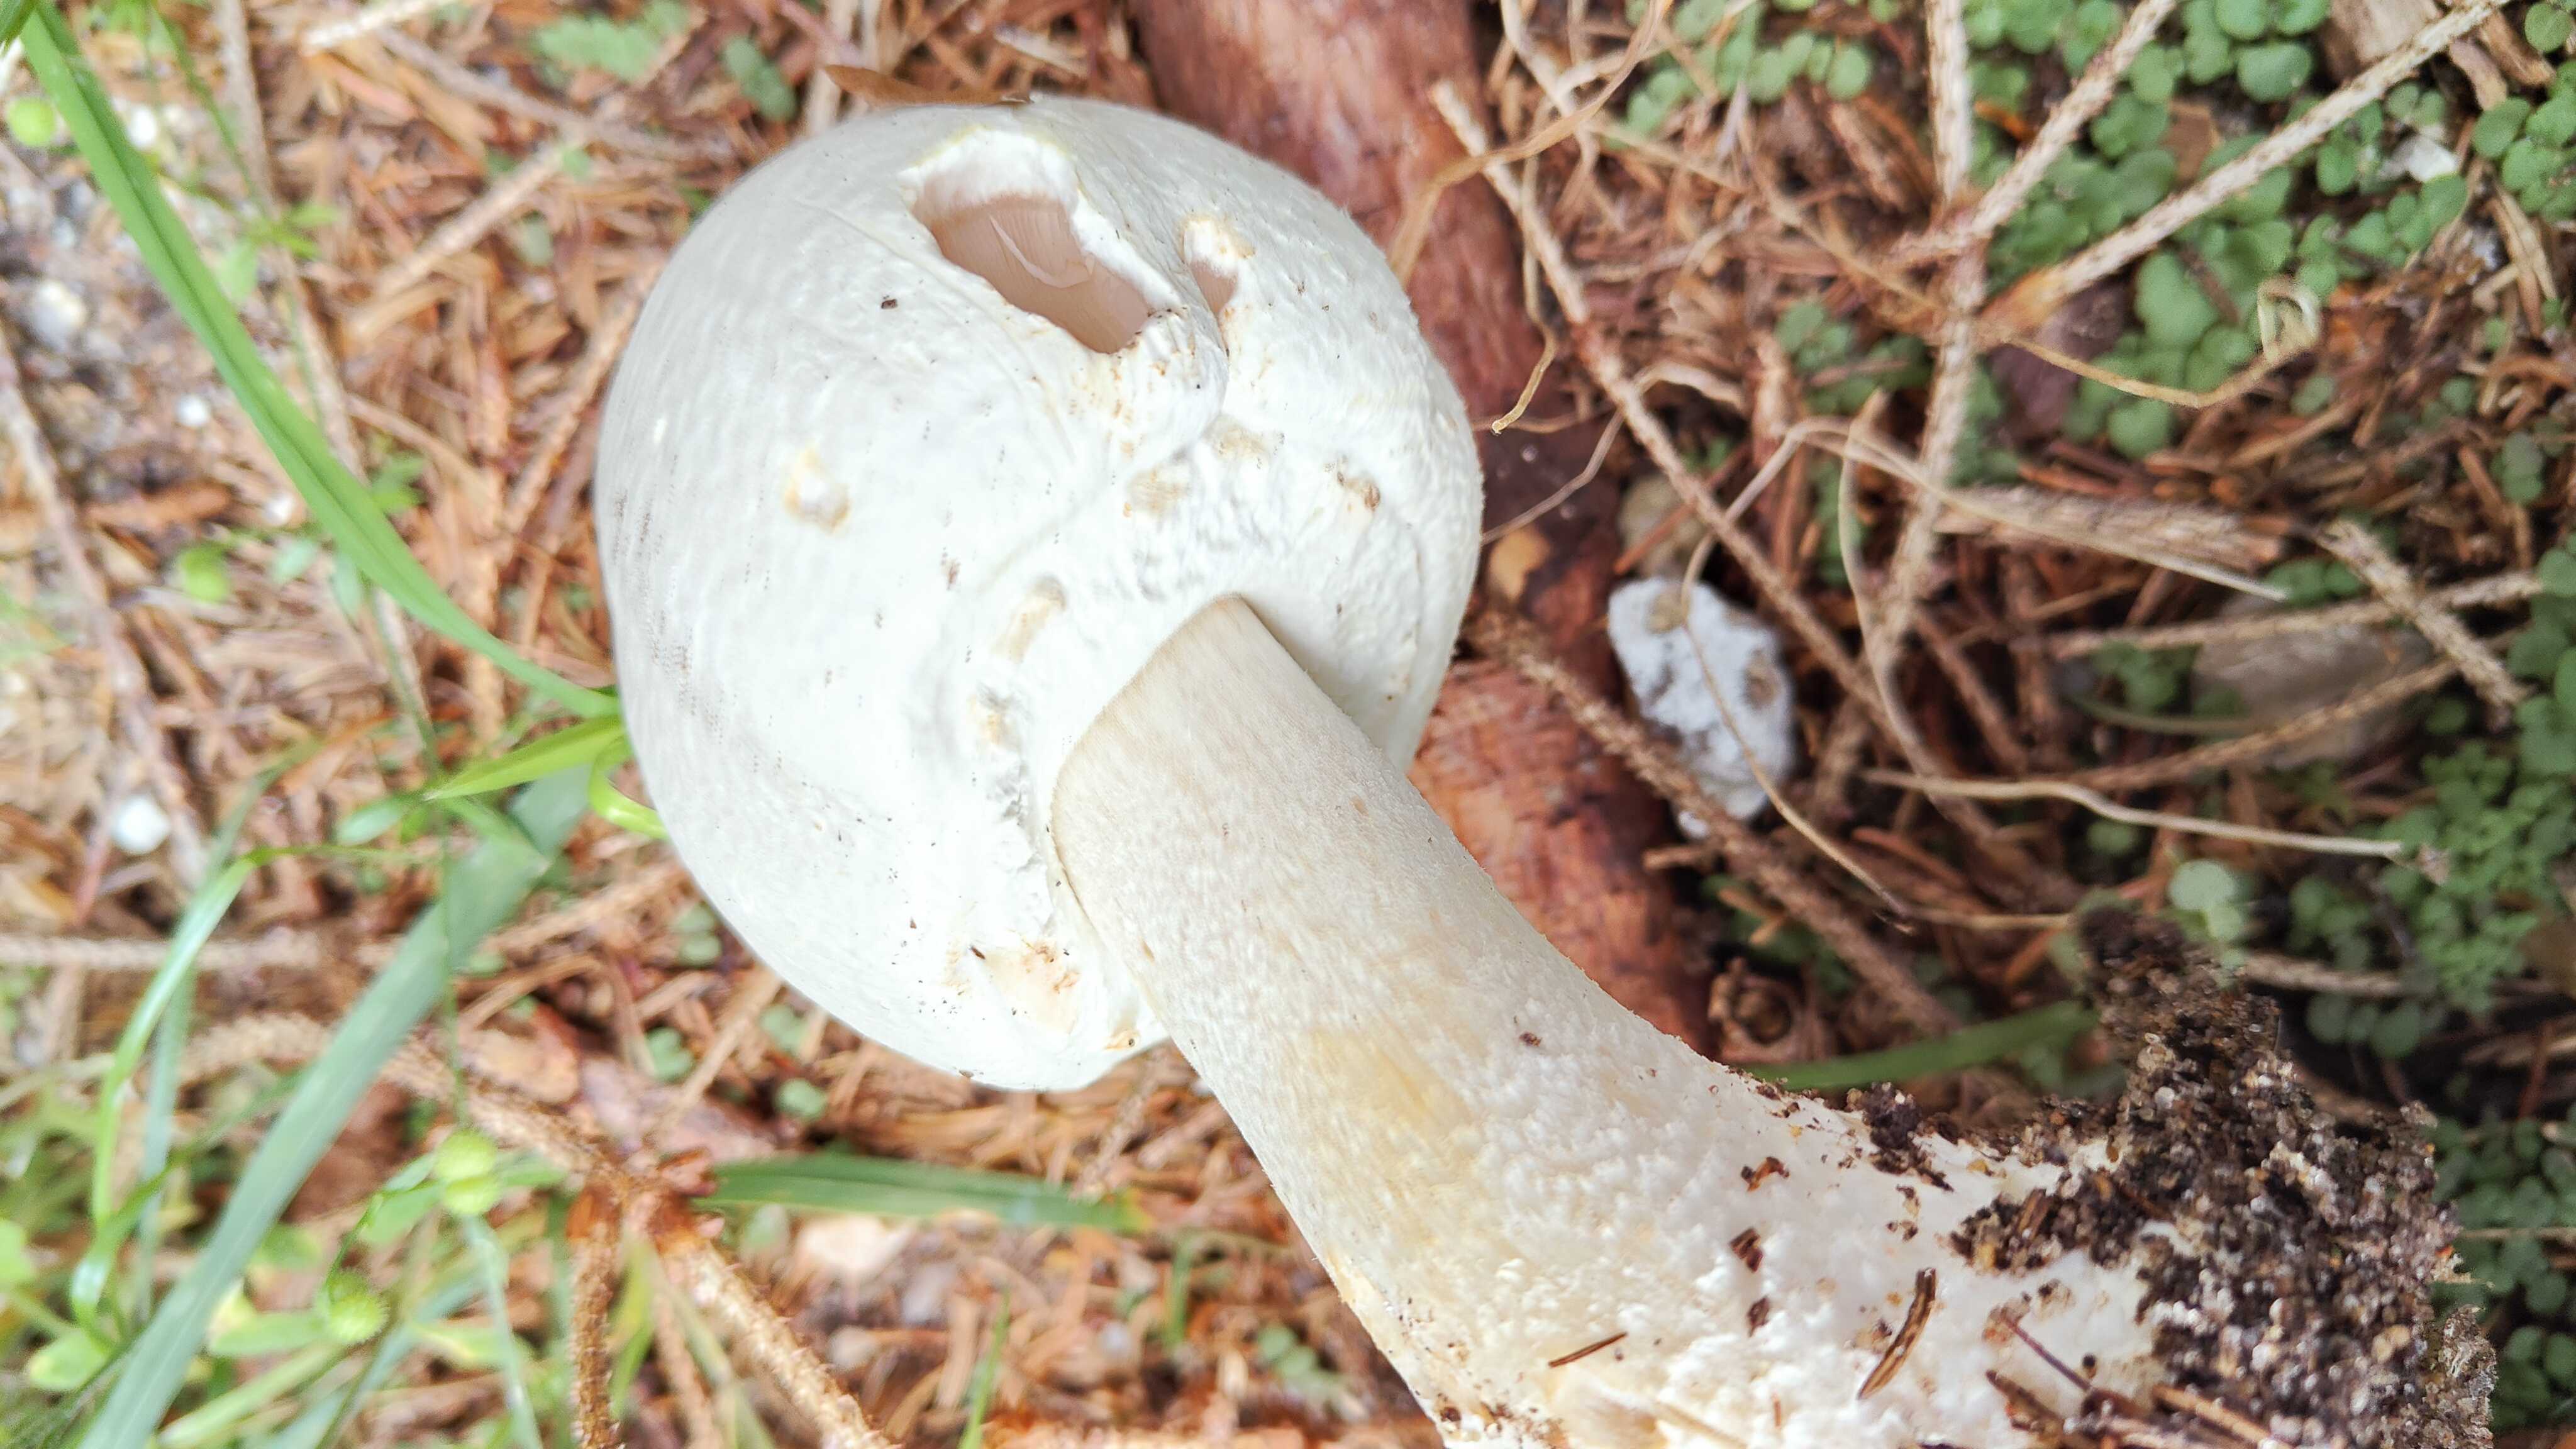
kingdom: Fungi
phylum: Basidiomycota
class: Agaricomycetes
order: Agaricales
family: Agaricaceae
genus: Agaricus
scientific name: Agaricus sylvicola
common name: gulhvid champignon
